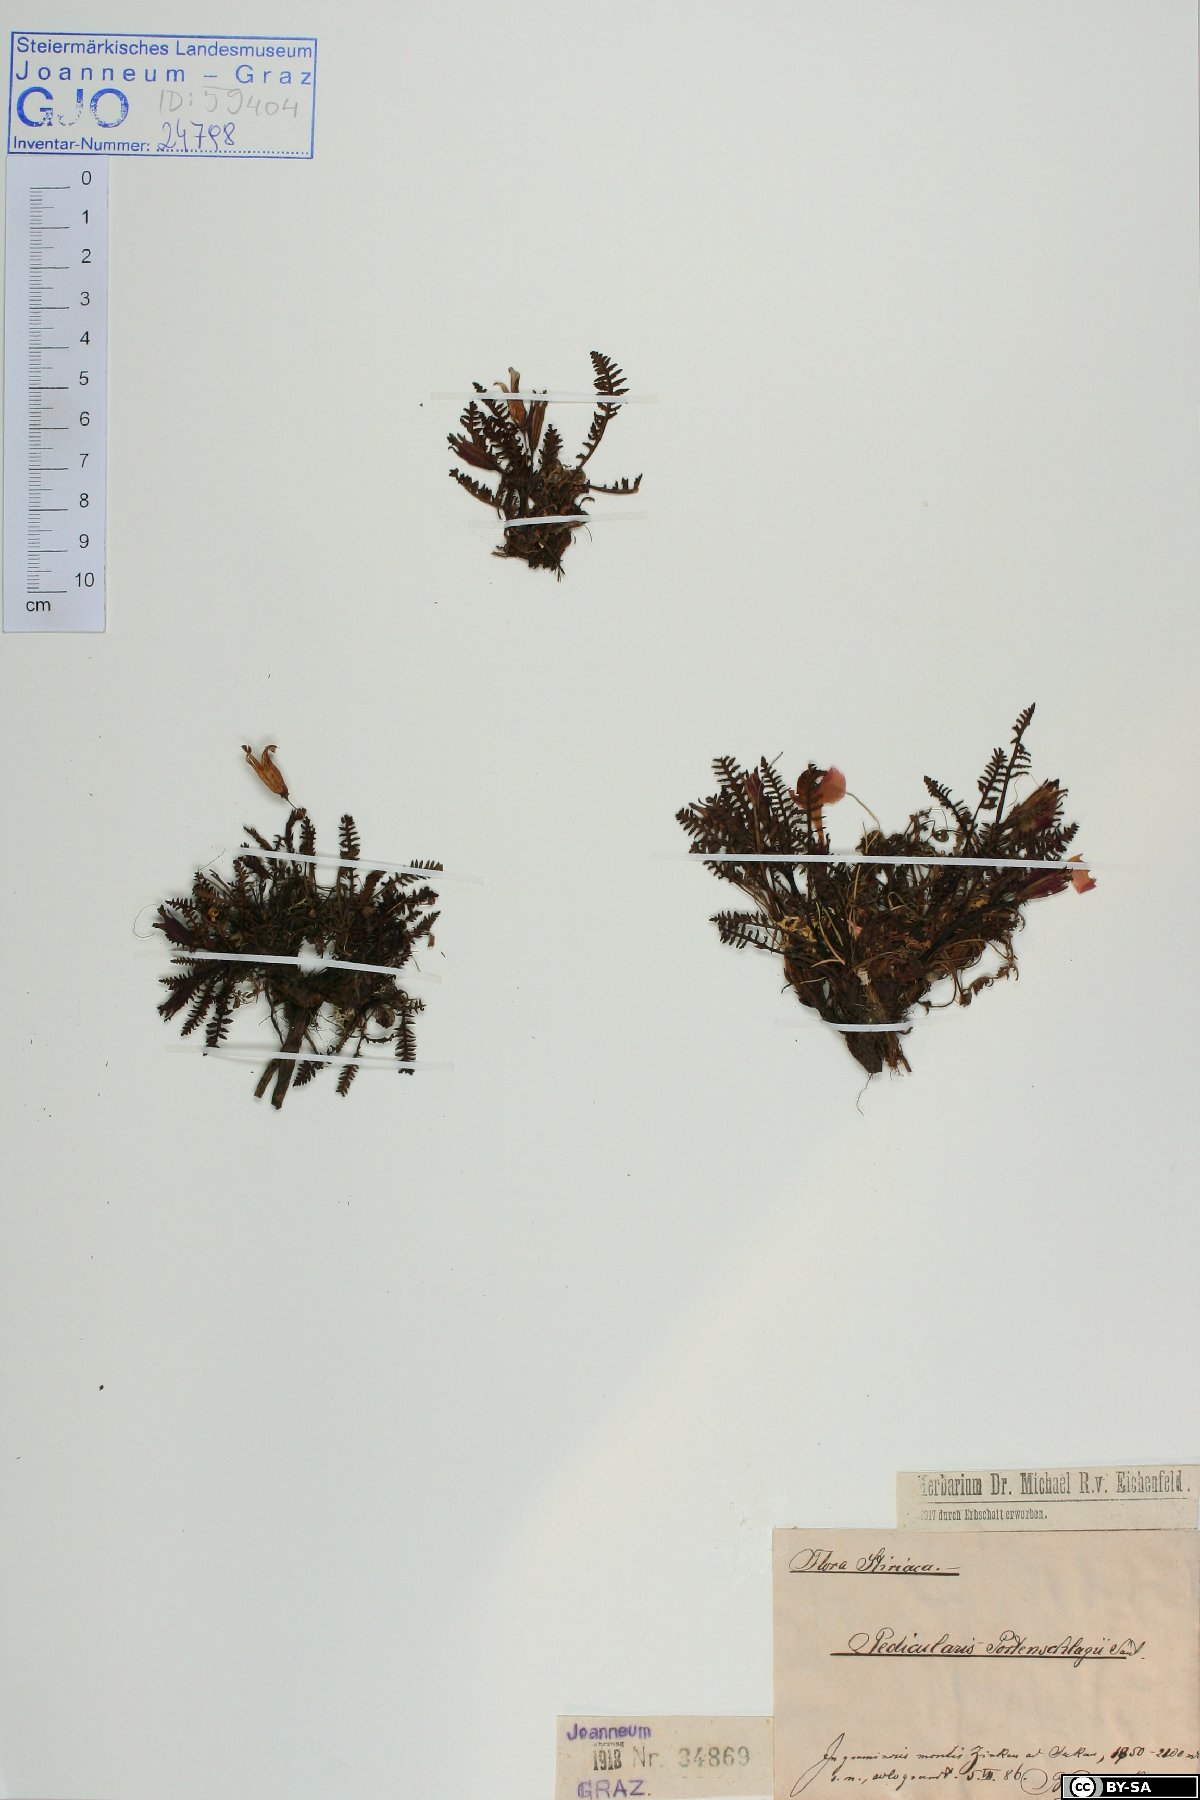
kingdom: Plantae
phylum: Tracheophyta
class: Magnoliopsida
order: Lamiales
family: Orobanchaceae
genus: Pedicularis
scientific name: Pedicularis portenschlagii
